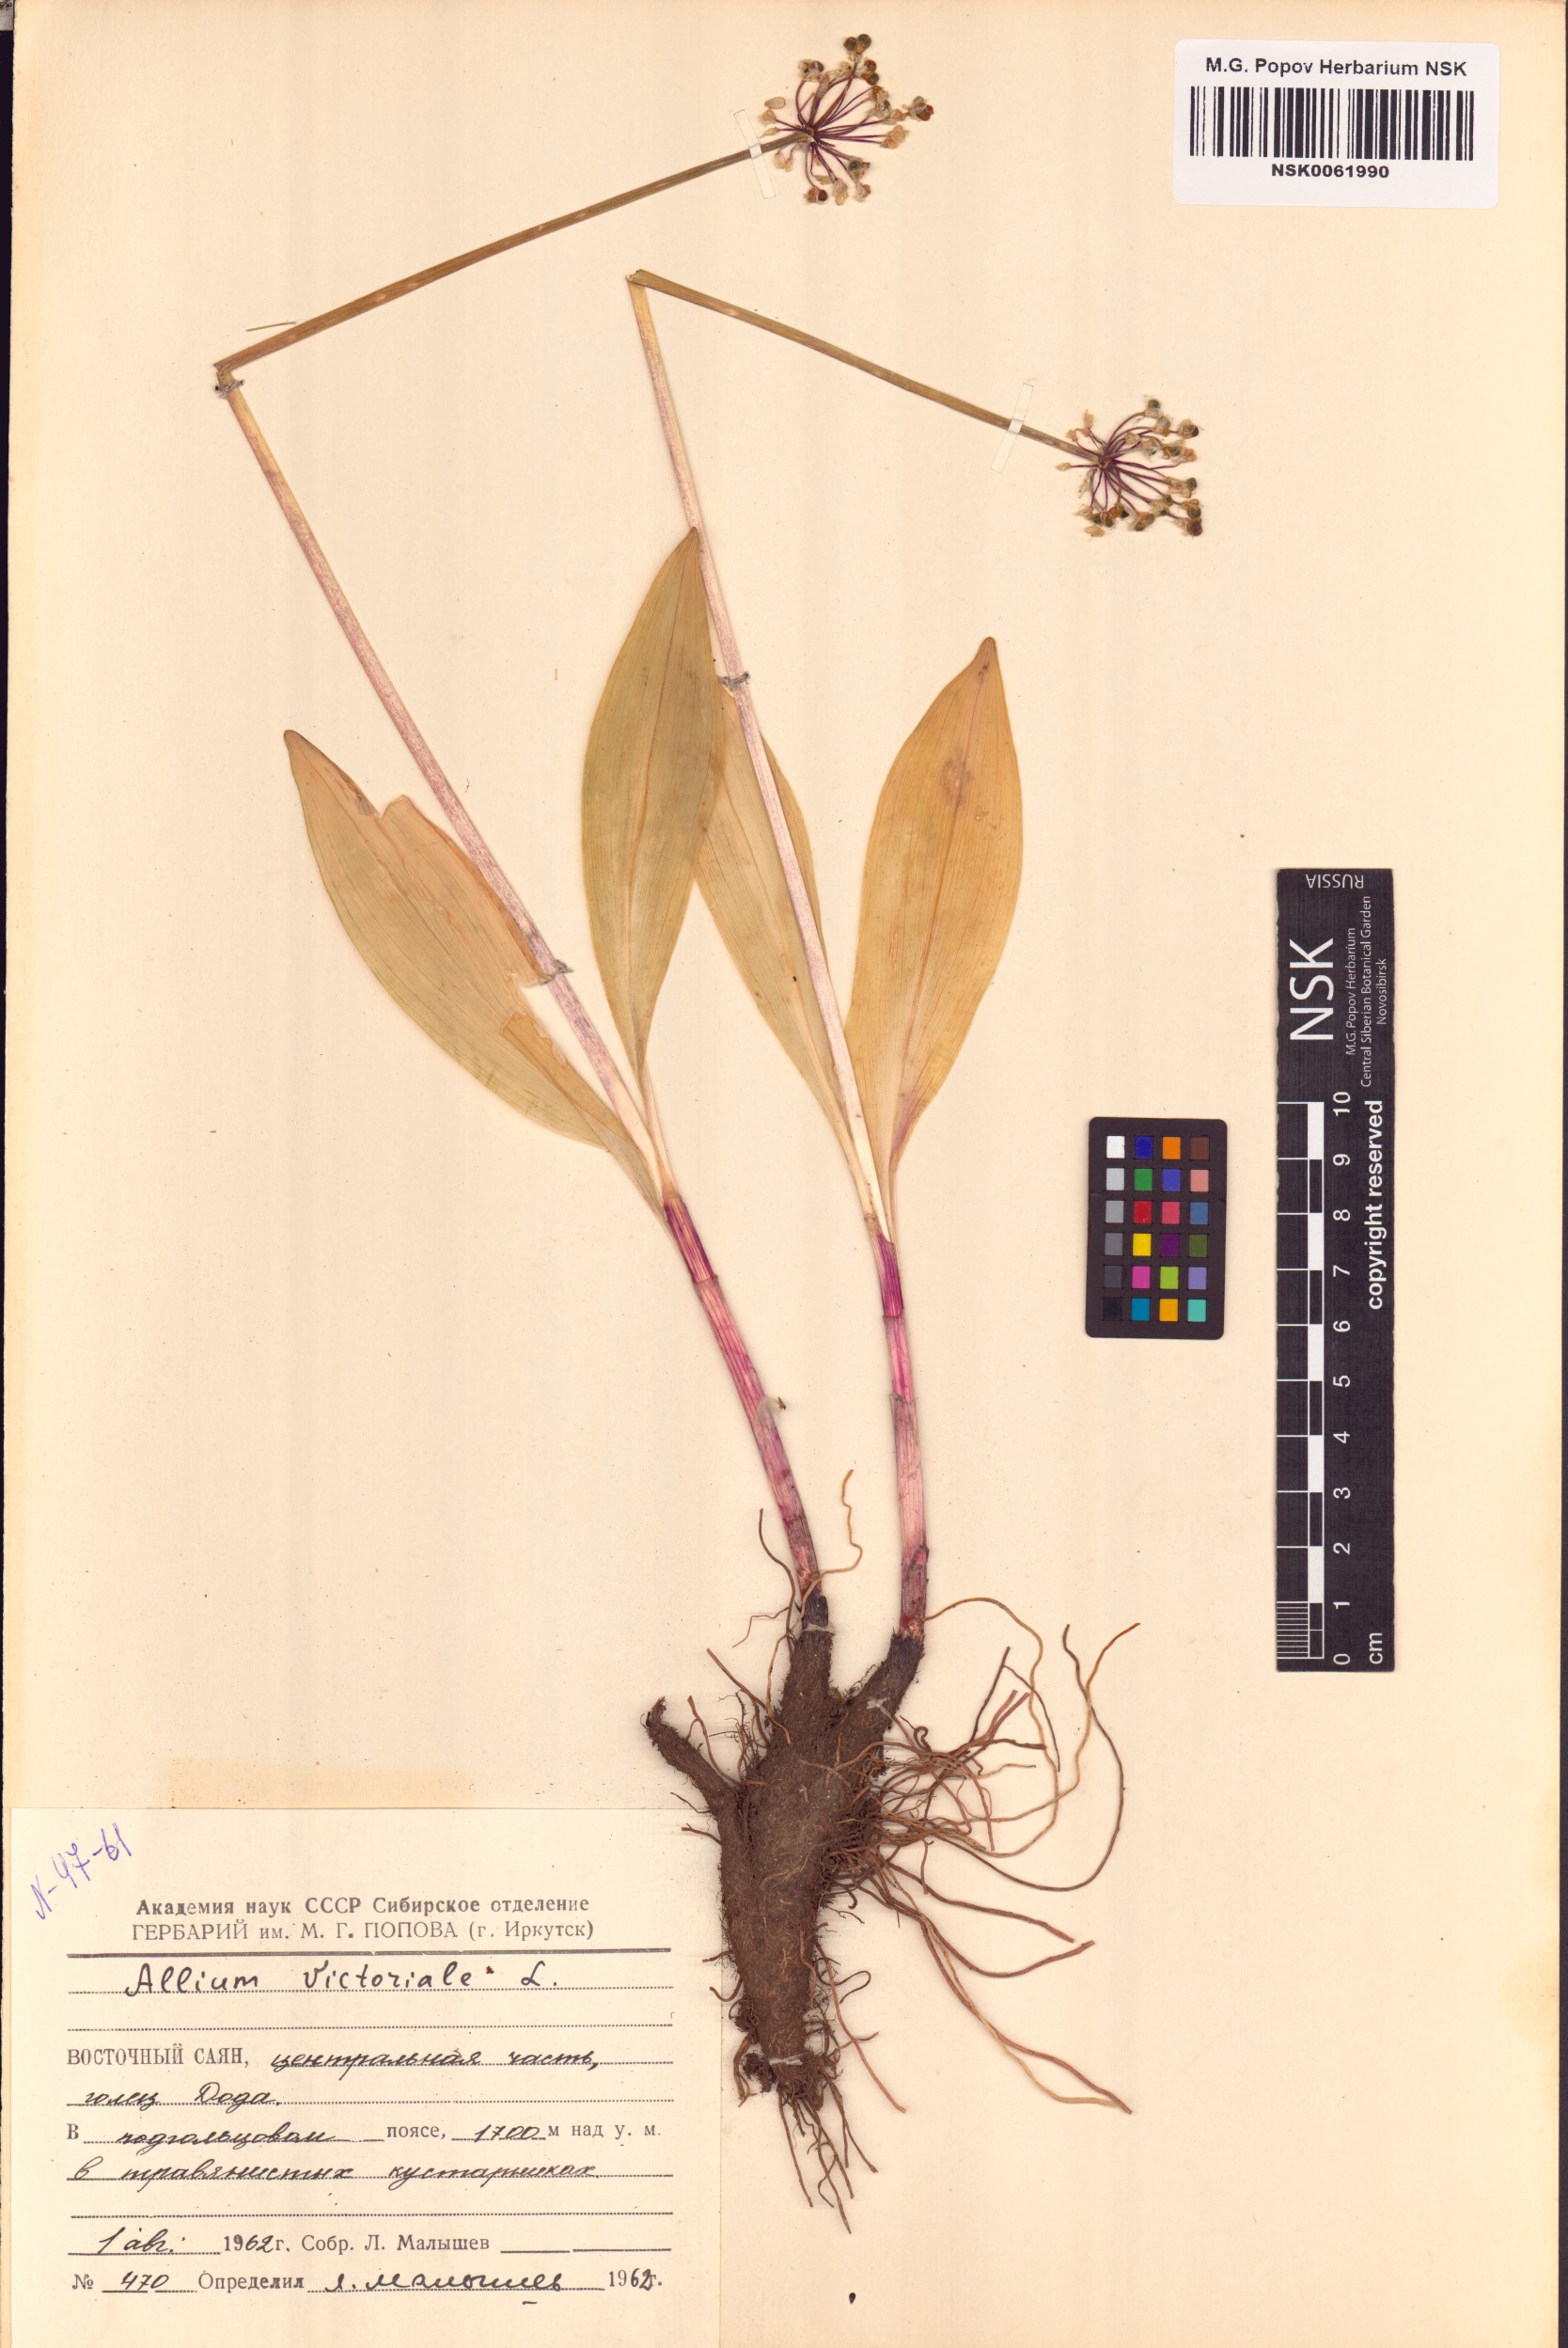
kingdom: Plantae
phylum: Tracheophyta
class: Liliopsida
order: Asparagales
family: Amaryllidaceae
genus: Allium
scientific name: Allium victorialis
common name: Alpine leek
